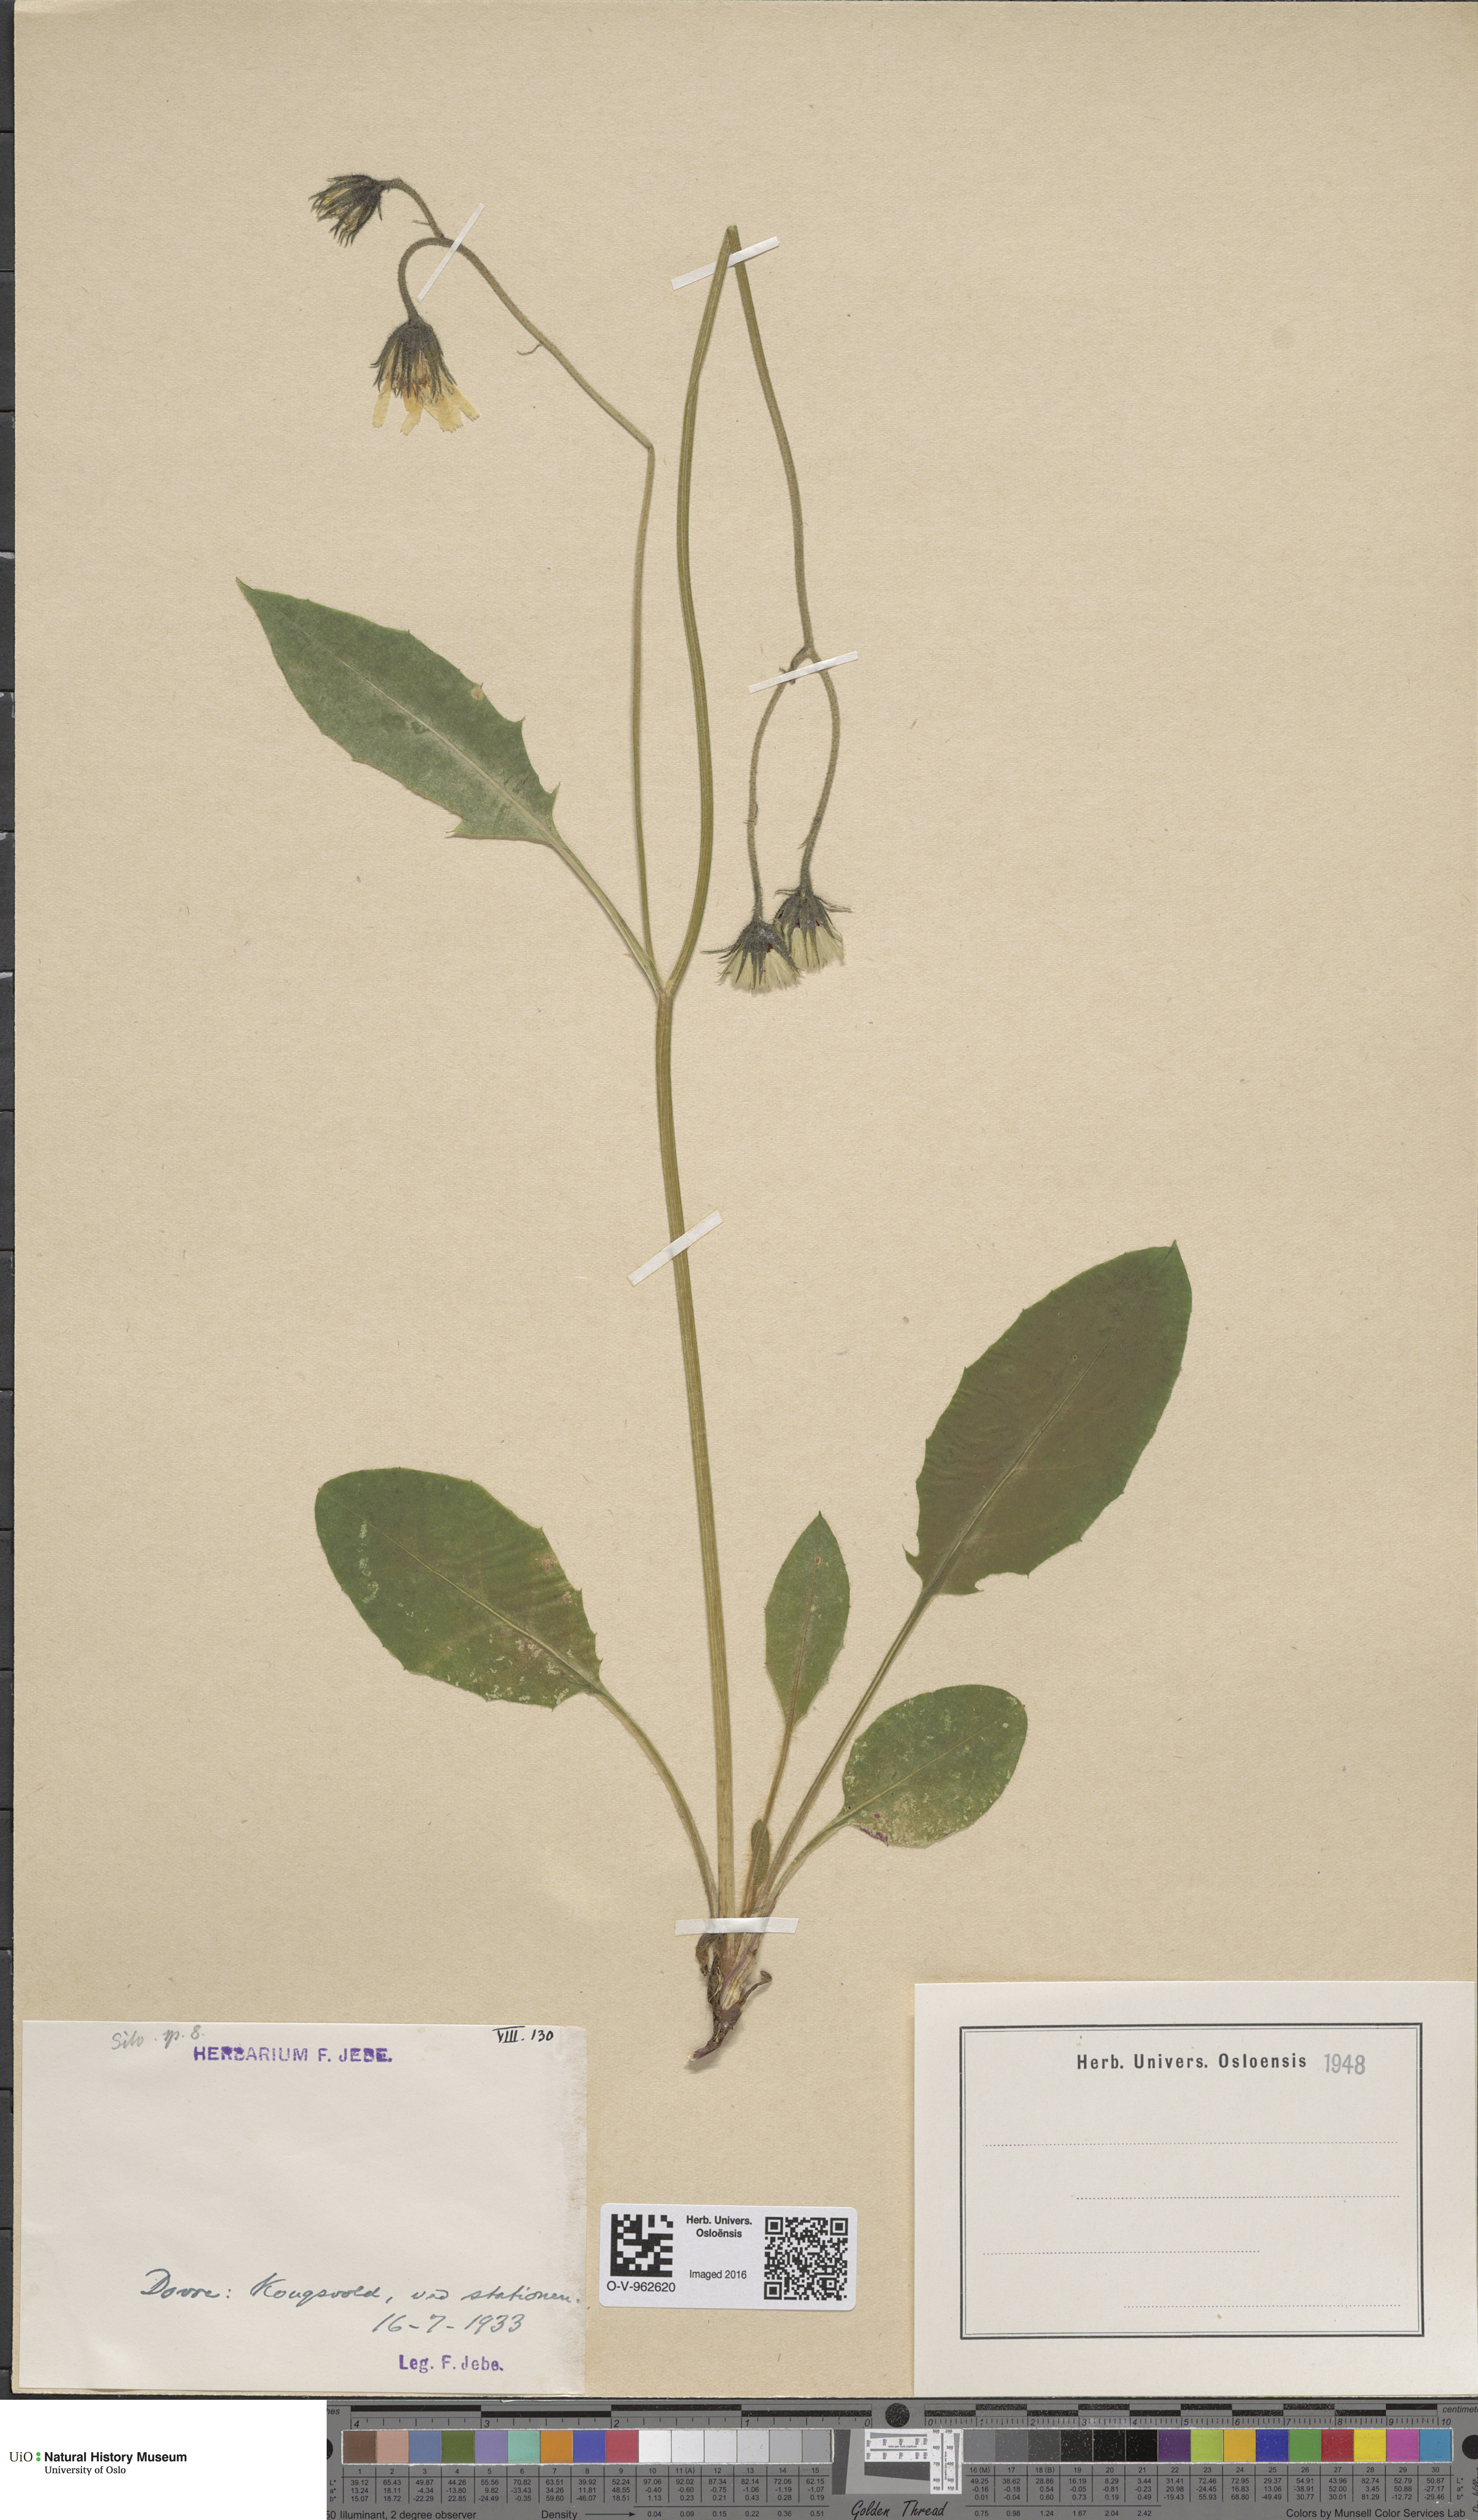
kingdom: Plantae
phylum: Tracheophyta
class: Magnoliopsida
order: Asterales
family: Asteraceae
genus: Hieracium
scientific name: Hieracium
